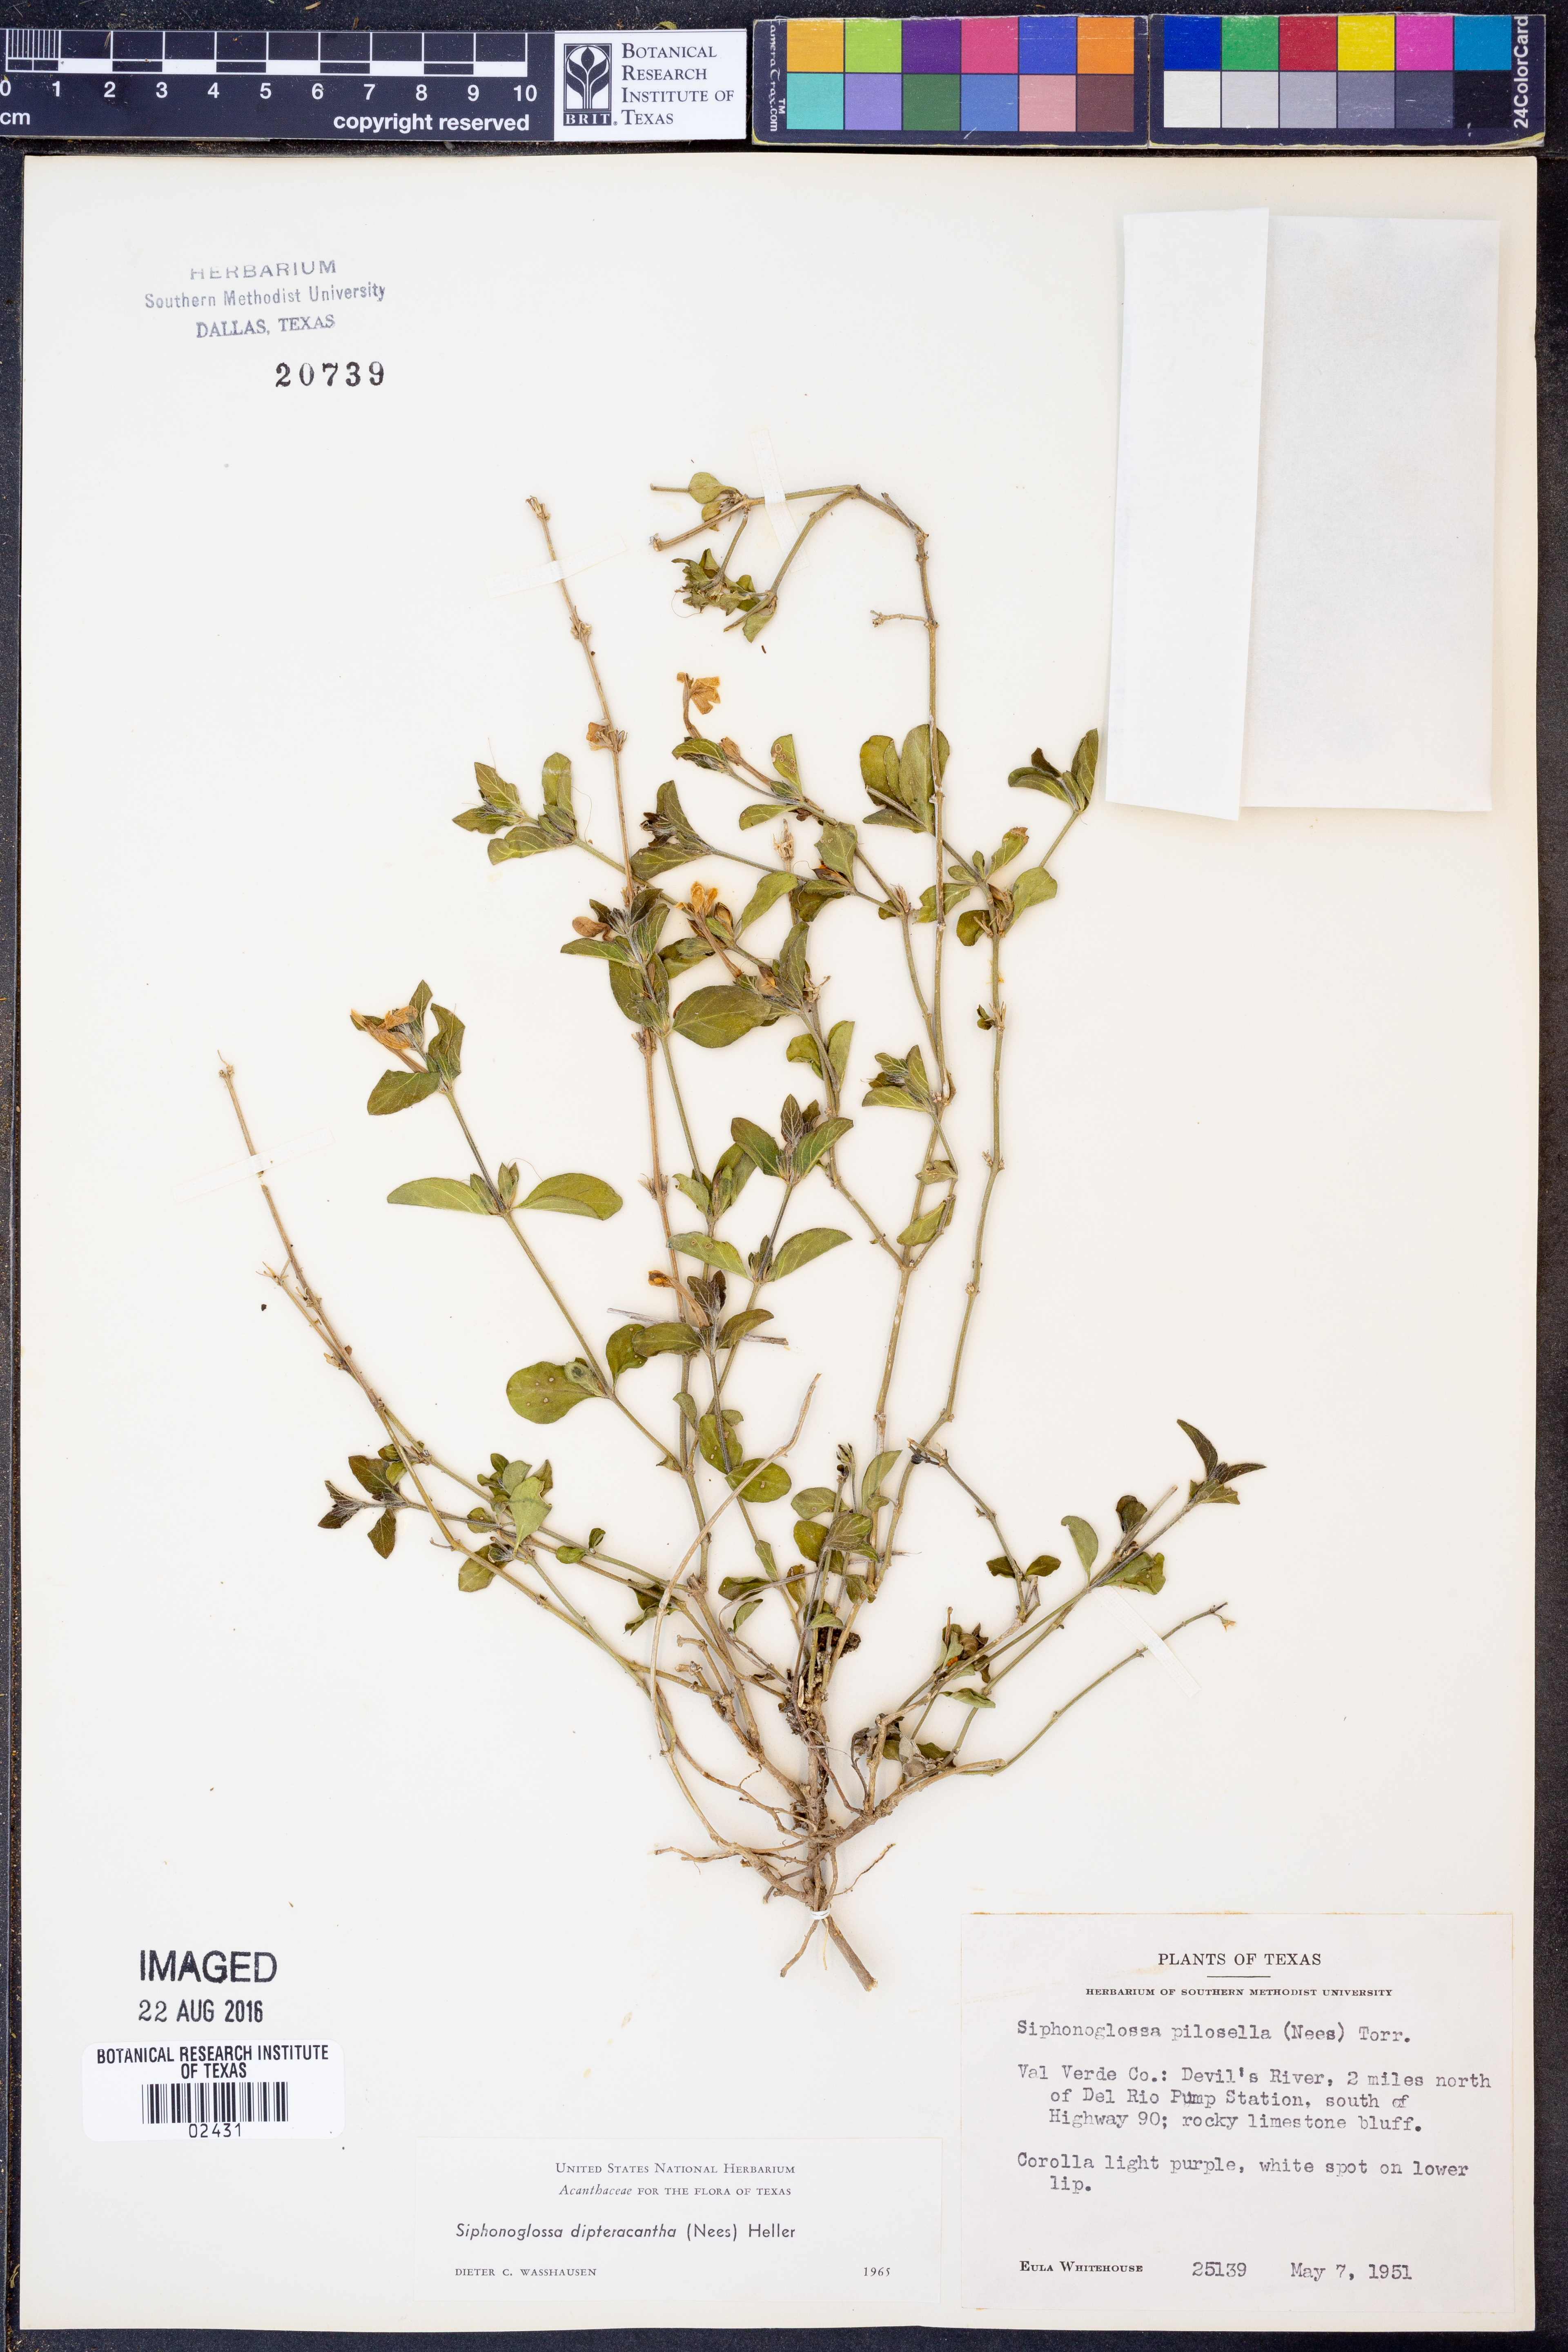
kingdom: Plantae
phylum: Tracheophyta
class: Magnoliopsida
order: Lamiales
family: Acanthaceae
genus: Justicia
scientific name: Justicia pilosella
